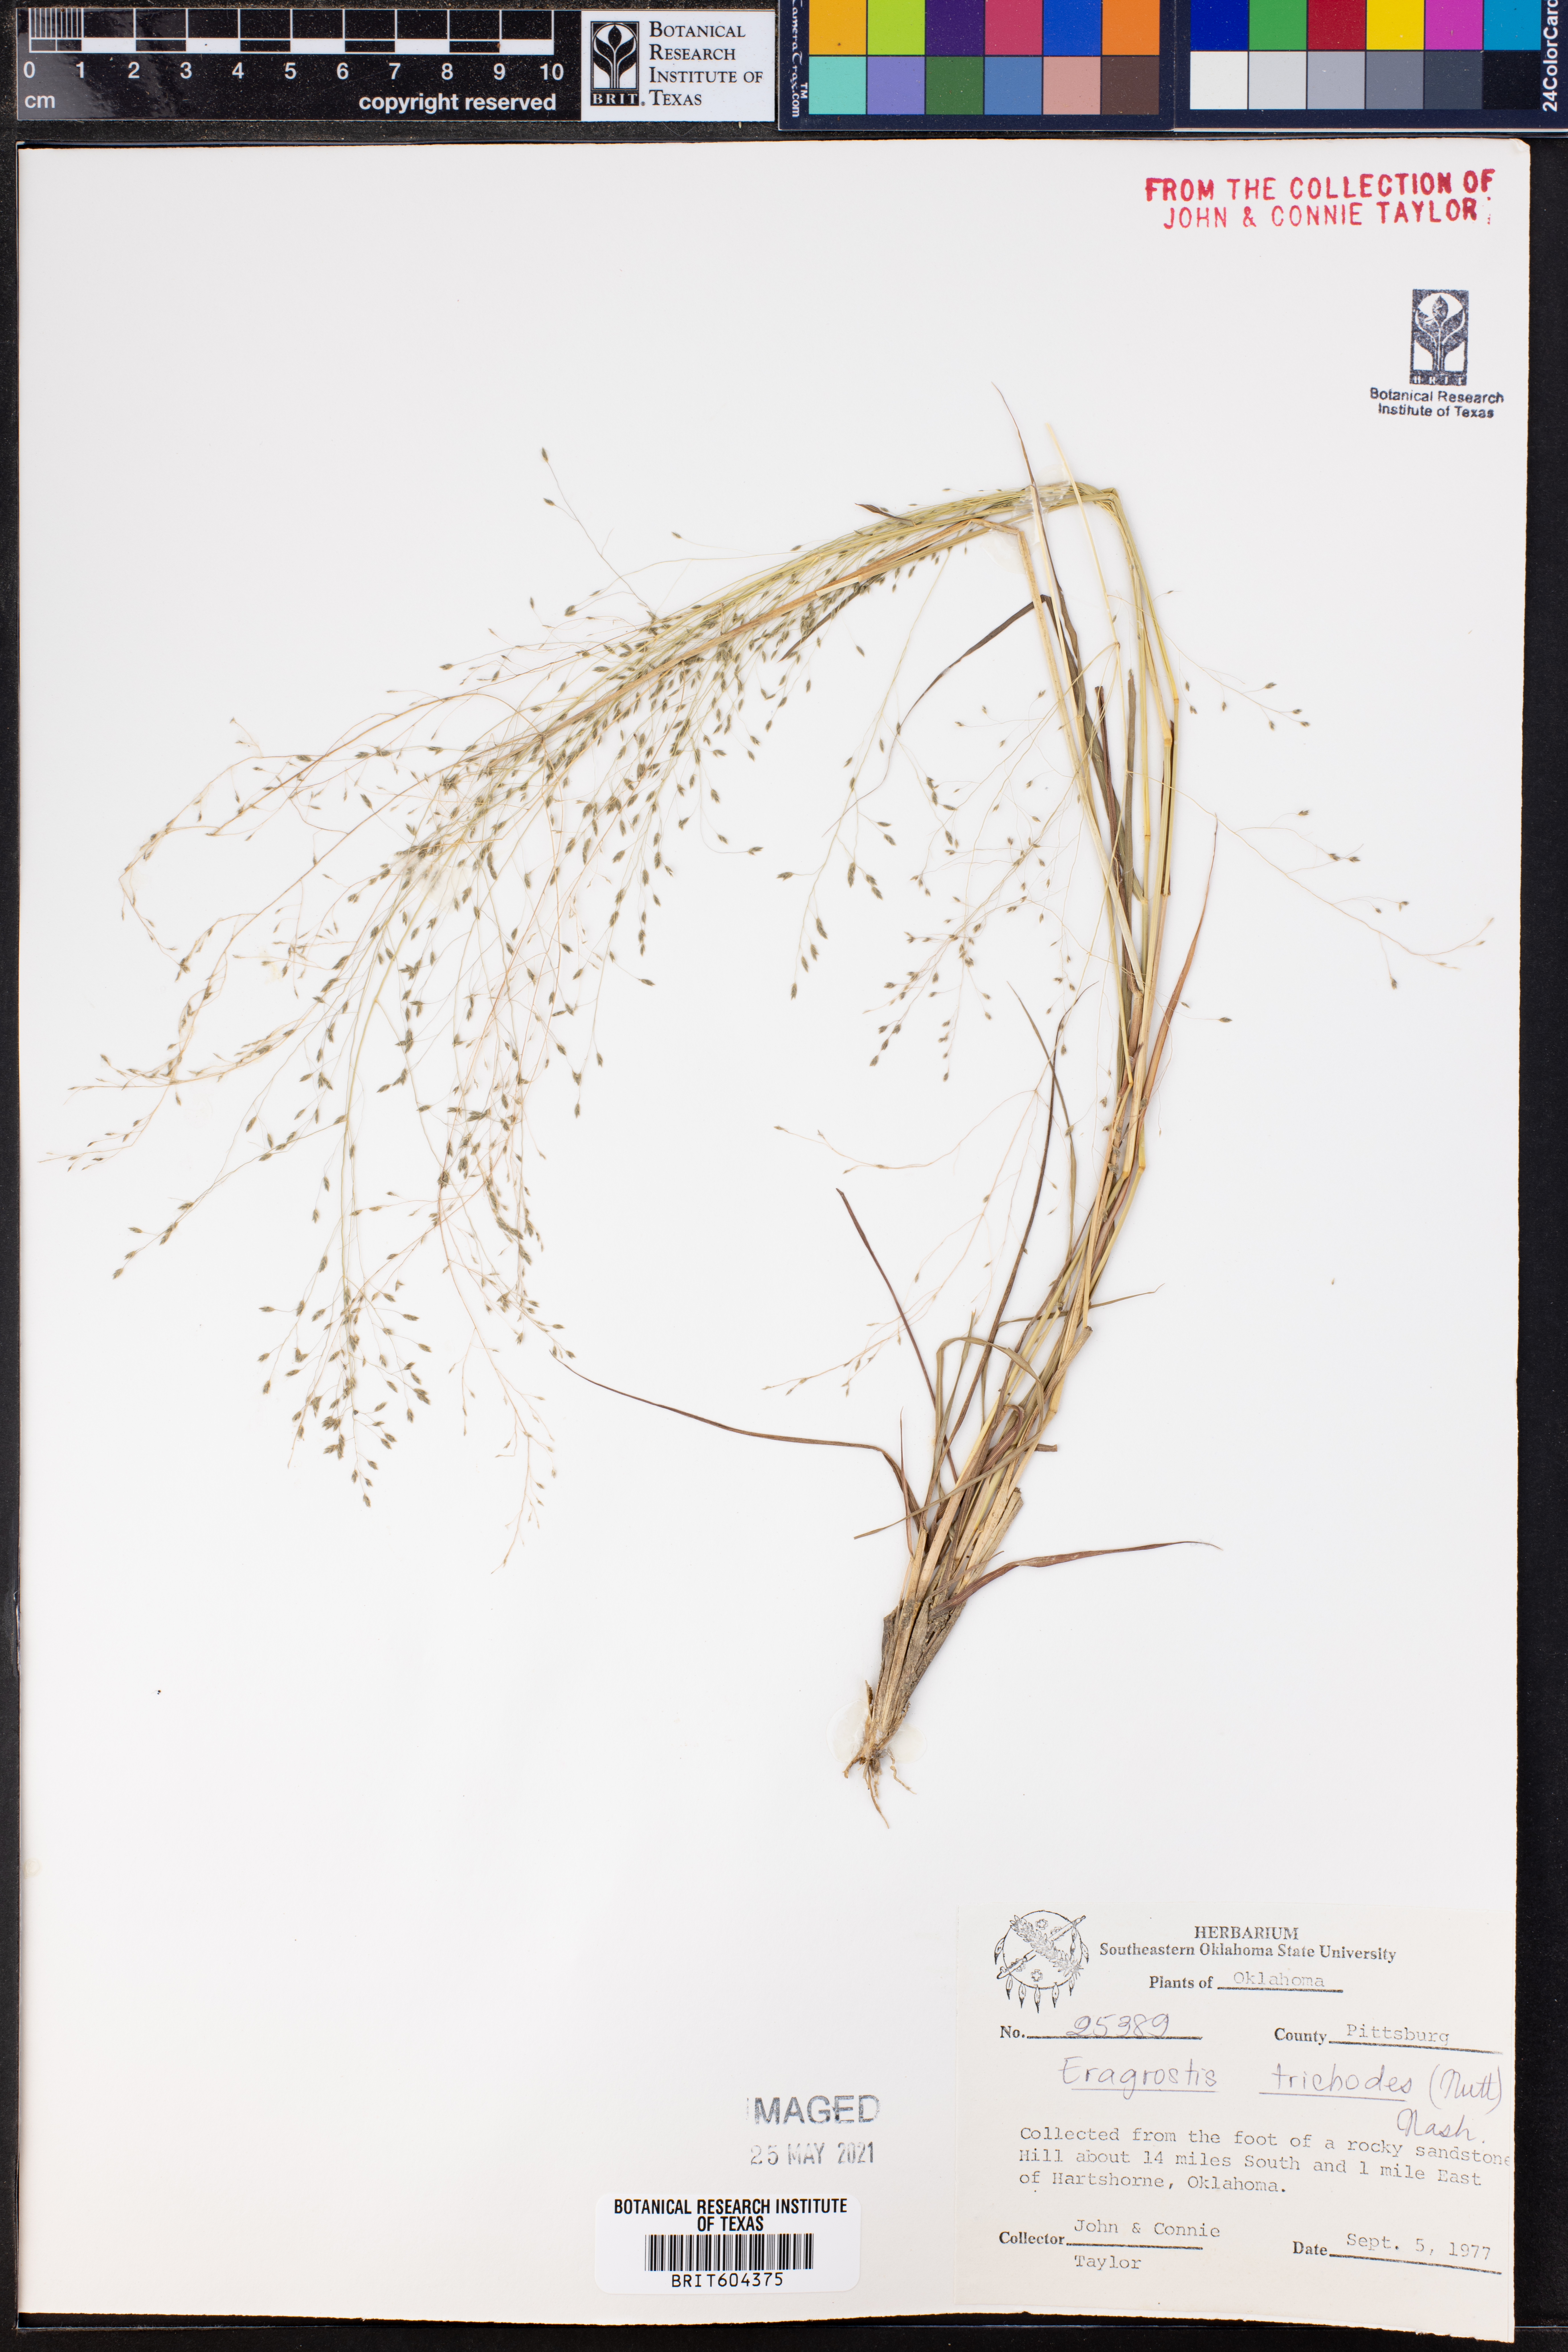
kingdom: Plantae
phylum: Tracheophyta
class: Liliopsida
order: Poales
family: Poaceae
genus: Eragrostis
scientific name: Eragrostis trichodes
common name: Sand love grass
